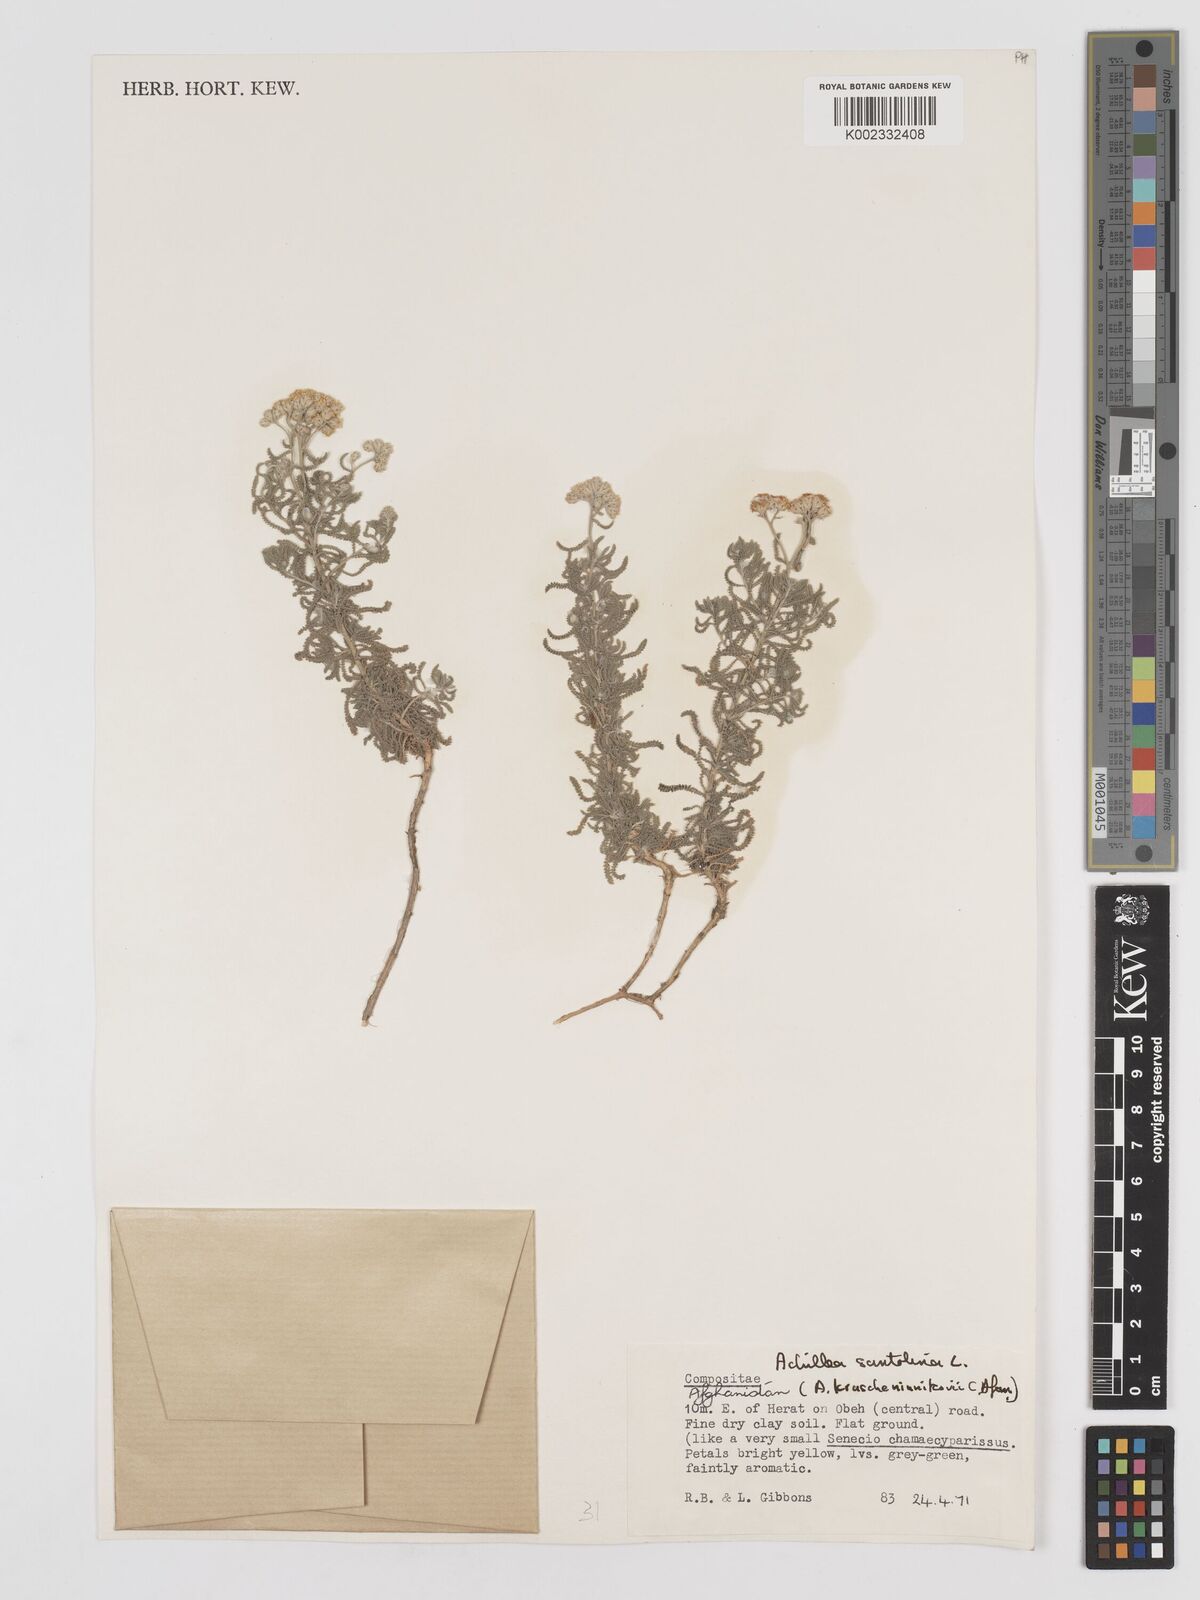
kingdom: Plantae
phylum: Tracheophyta
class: Magnoliopsida
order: Asterales
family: Asteraceae
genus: Achillea
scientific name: Achillea tenuifolia
